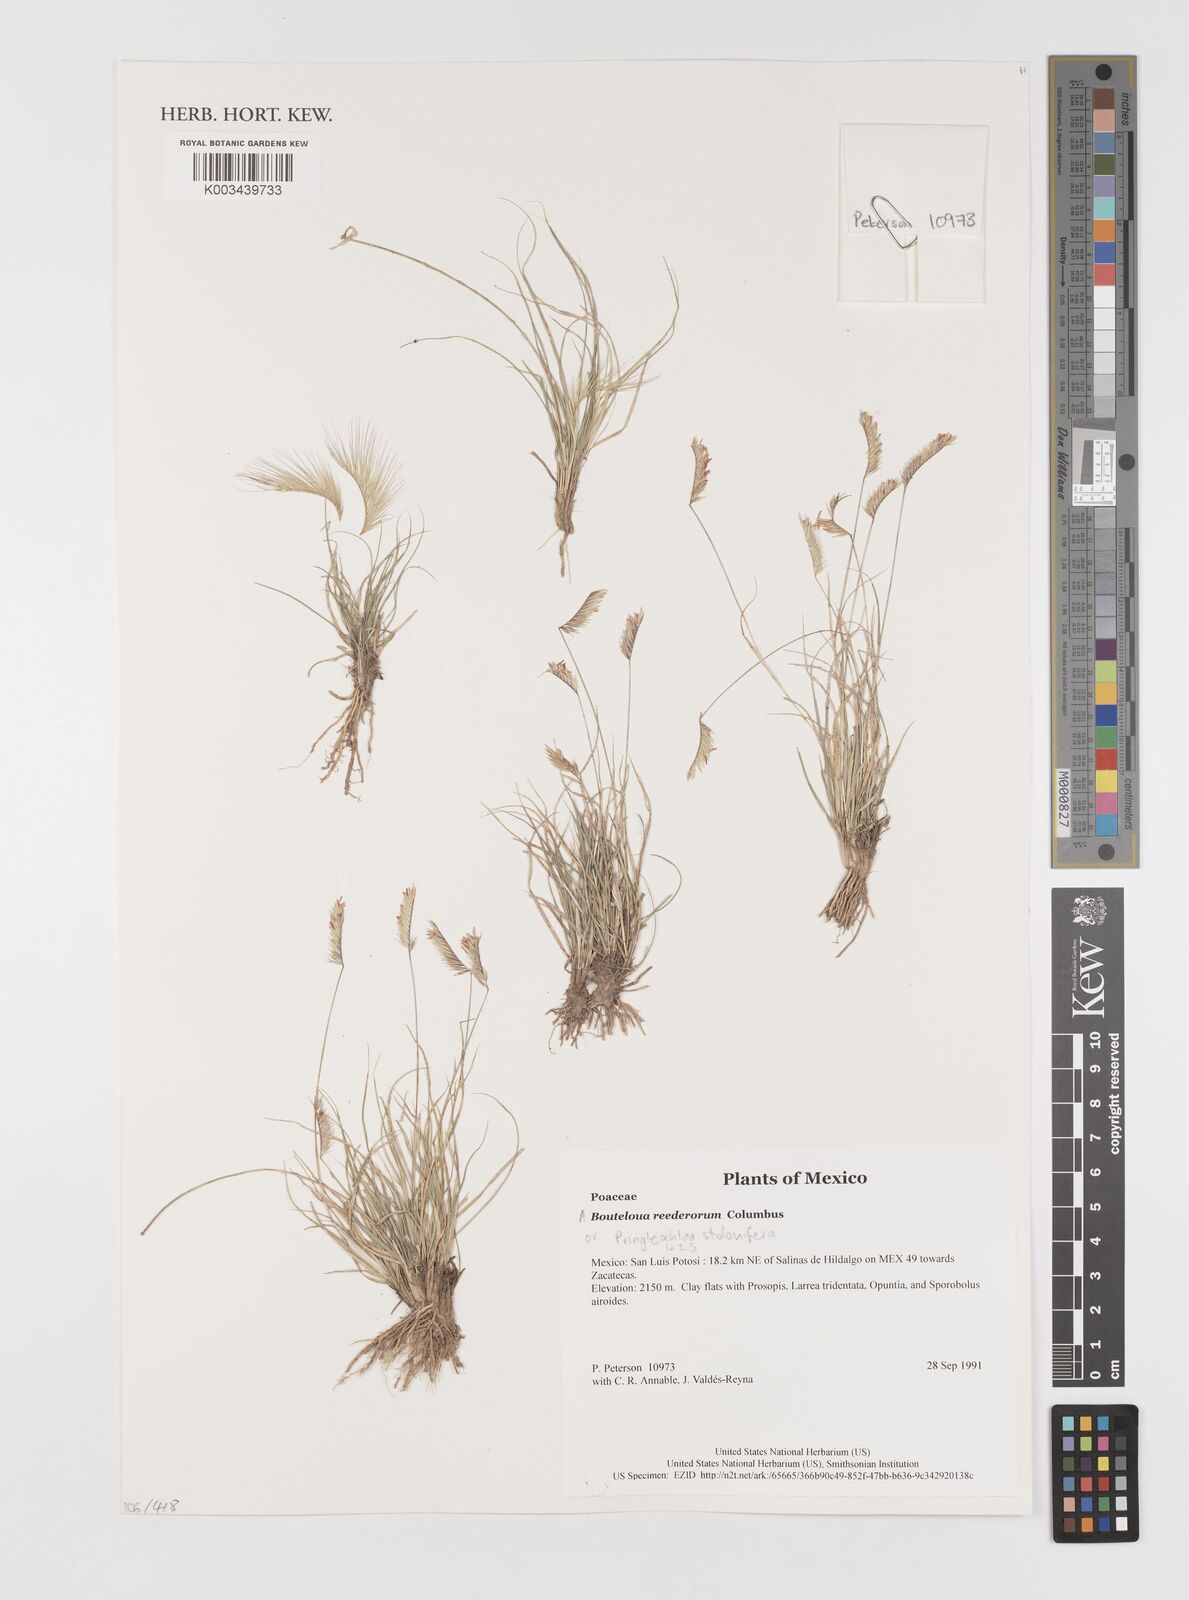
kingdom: Plantae
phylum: Tracheophyta
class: Liliopsida
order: Poales
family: Poaceae
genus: Bouteloua
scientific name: Bouteloua reederorum
